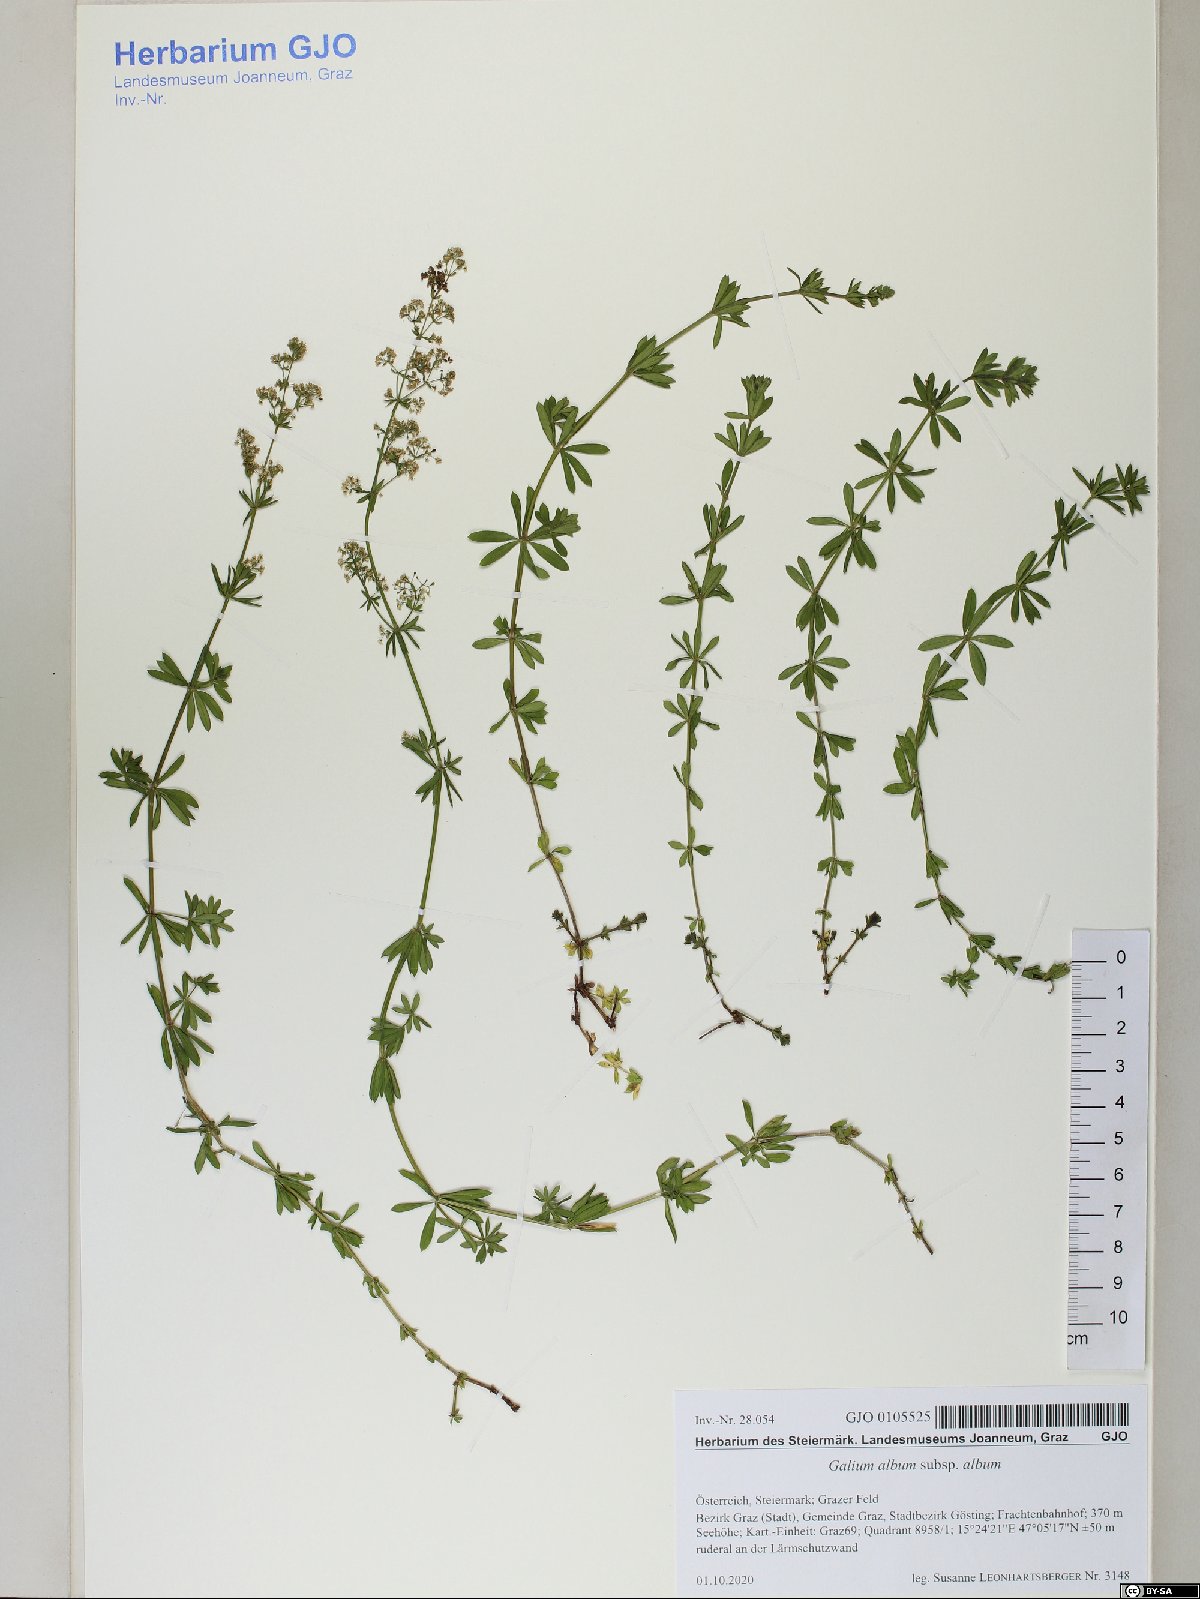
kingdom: Plantae
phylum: Tracheophyta
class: Magnoliopsida
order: Gentianales
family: Rubiaceae
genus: Galium
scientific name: Galium album
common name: White bedstraw
